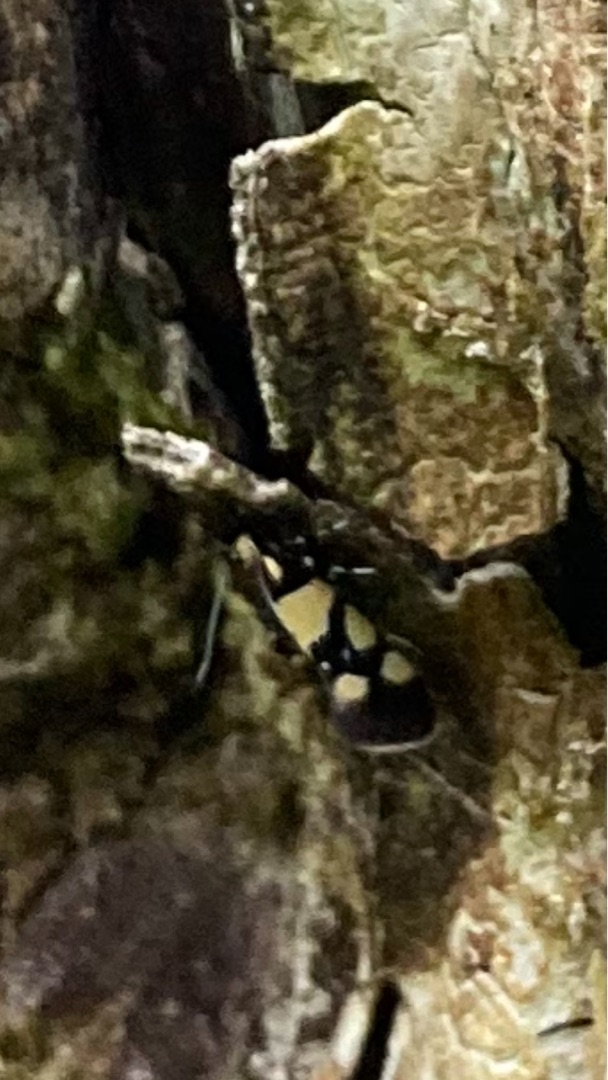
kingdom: Animalia
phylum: Arthropoda
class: Insecta
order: Lepidoptera
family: Oecophoridae
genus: Schiffermuelleria
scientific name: Schiffermuelleria amasiella
